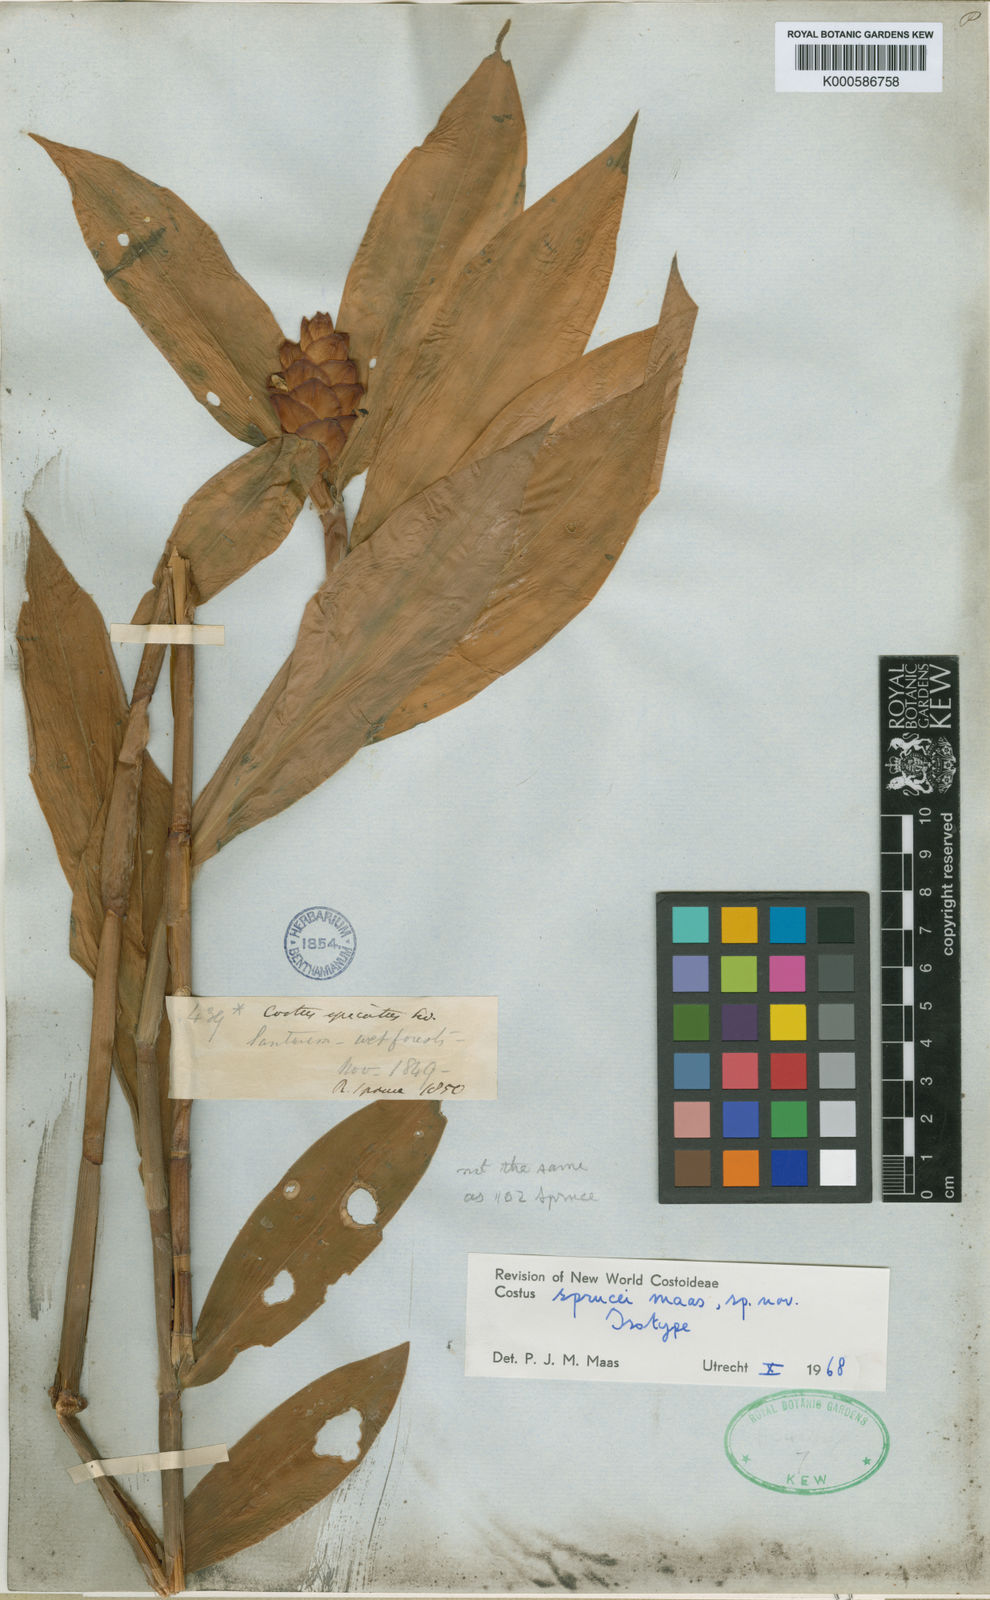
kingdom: Plantae
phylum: Tracheophyta
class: Liliopsida
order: Zingiberales
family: Costaceae
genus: Costus
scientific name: Costus sprucei
